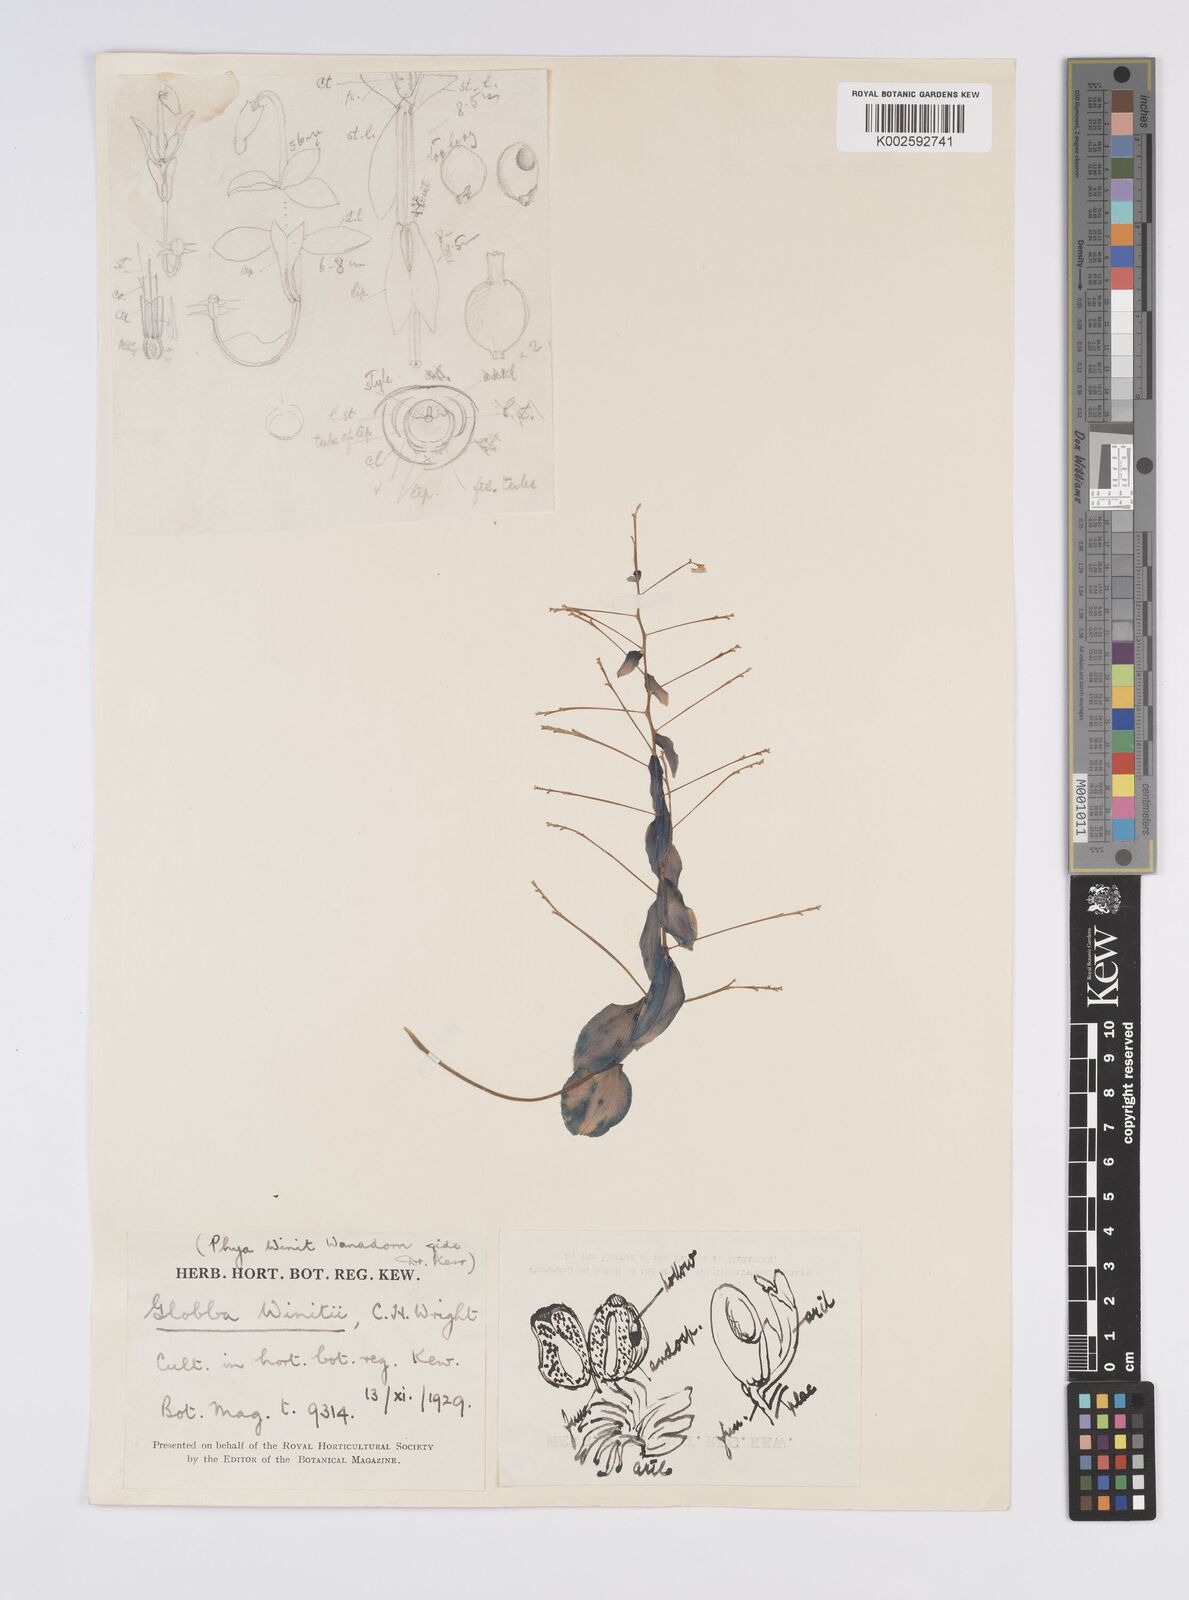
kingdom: Plantae
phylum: Tracheophyta
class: Liliopsida
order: Zingiberales
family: Zingiberaceae
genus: Globba
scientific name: Globba winitii
